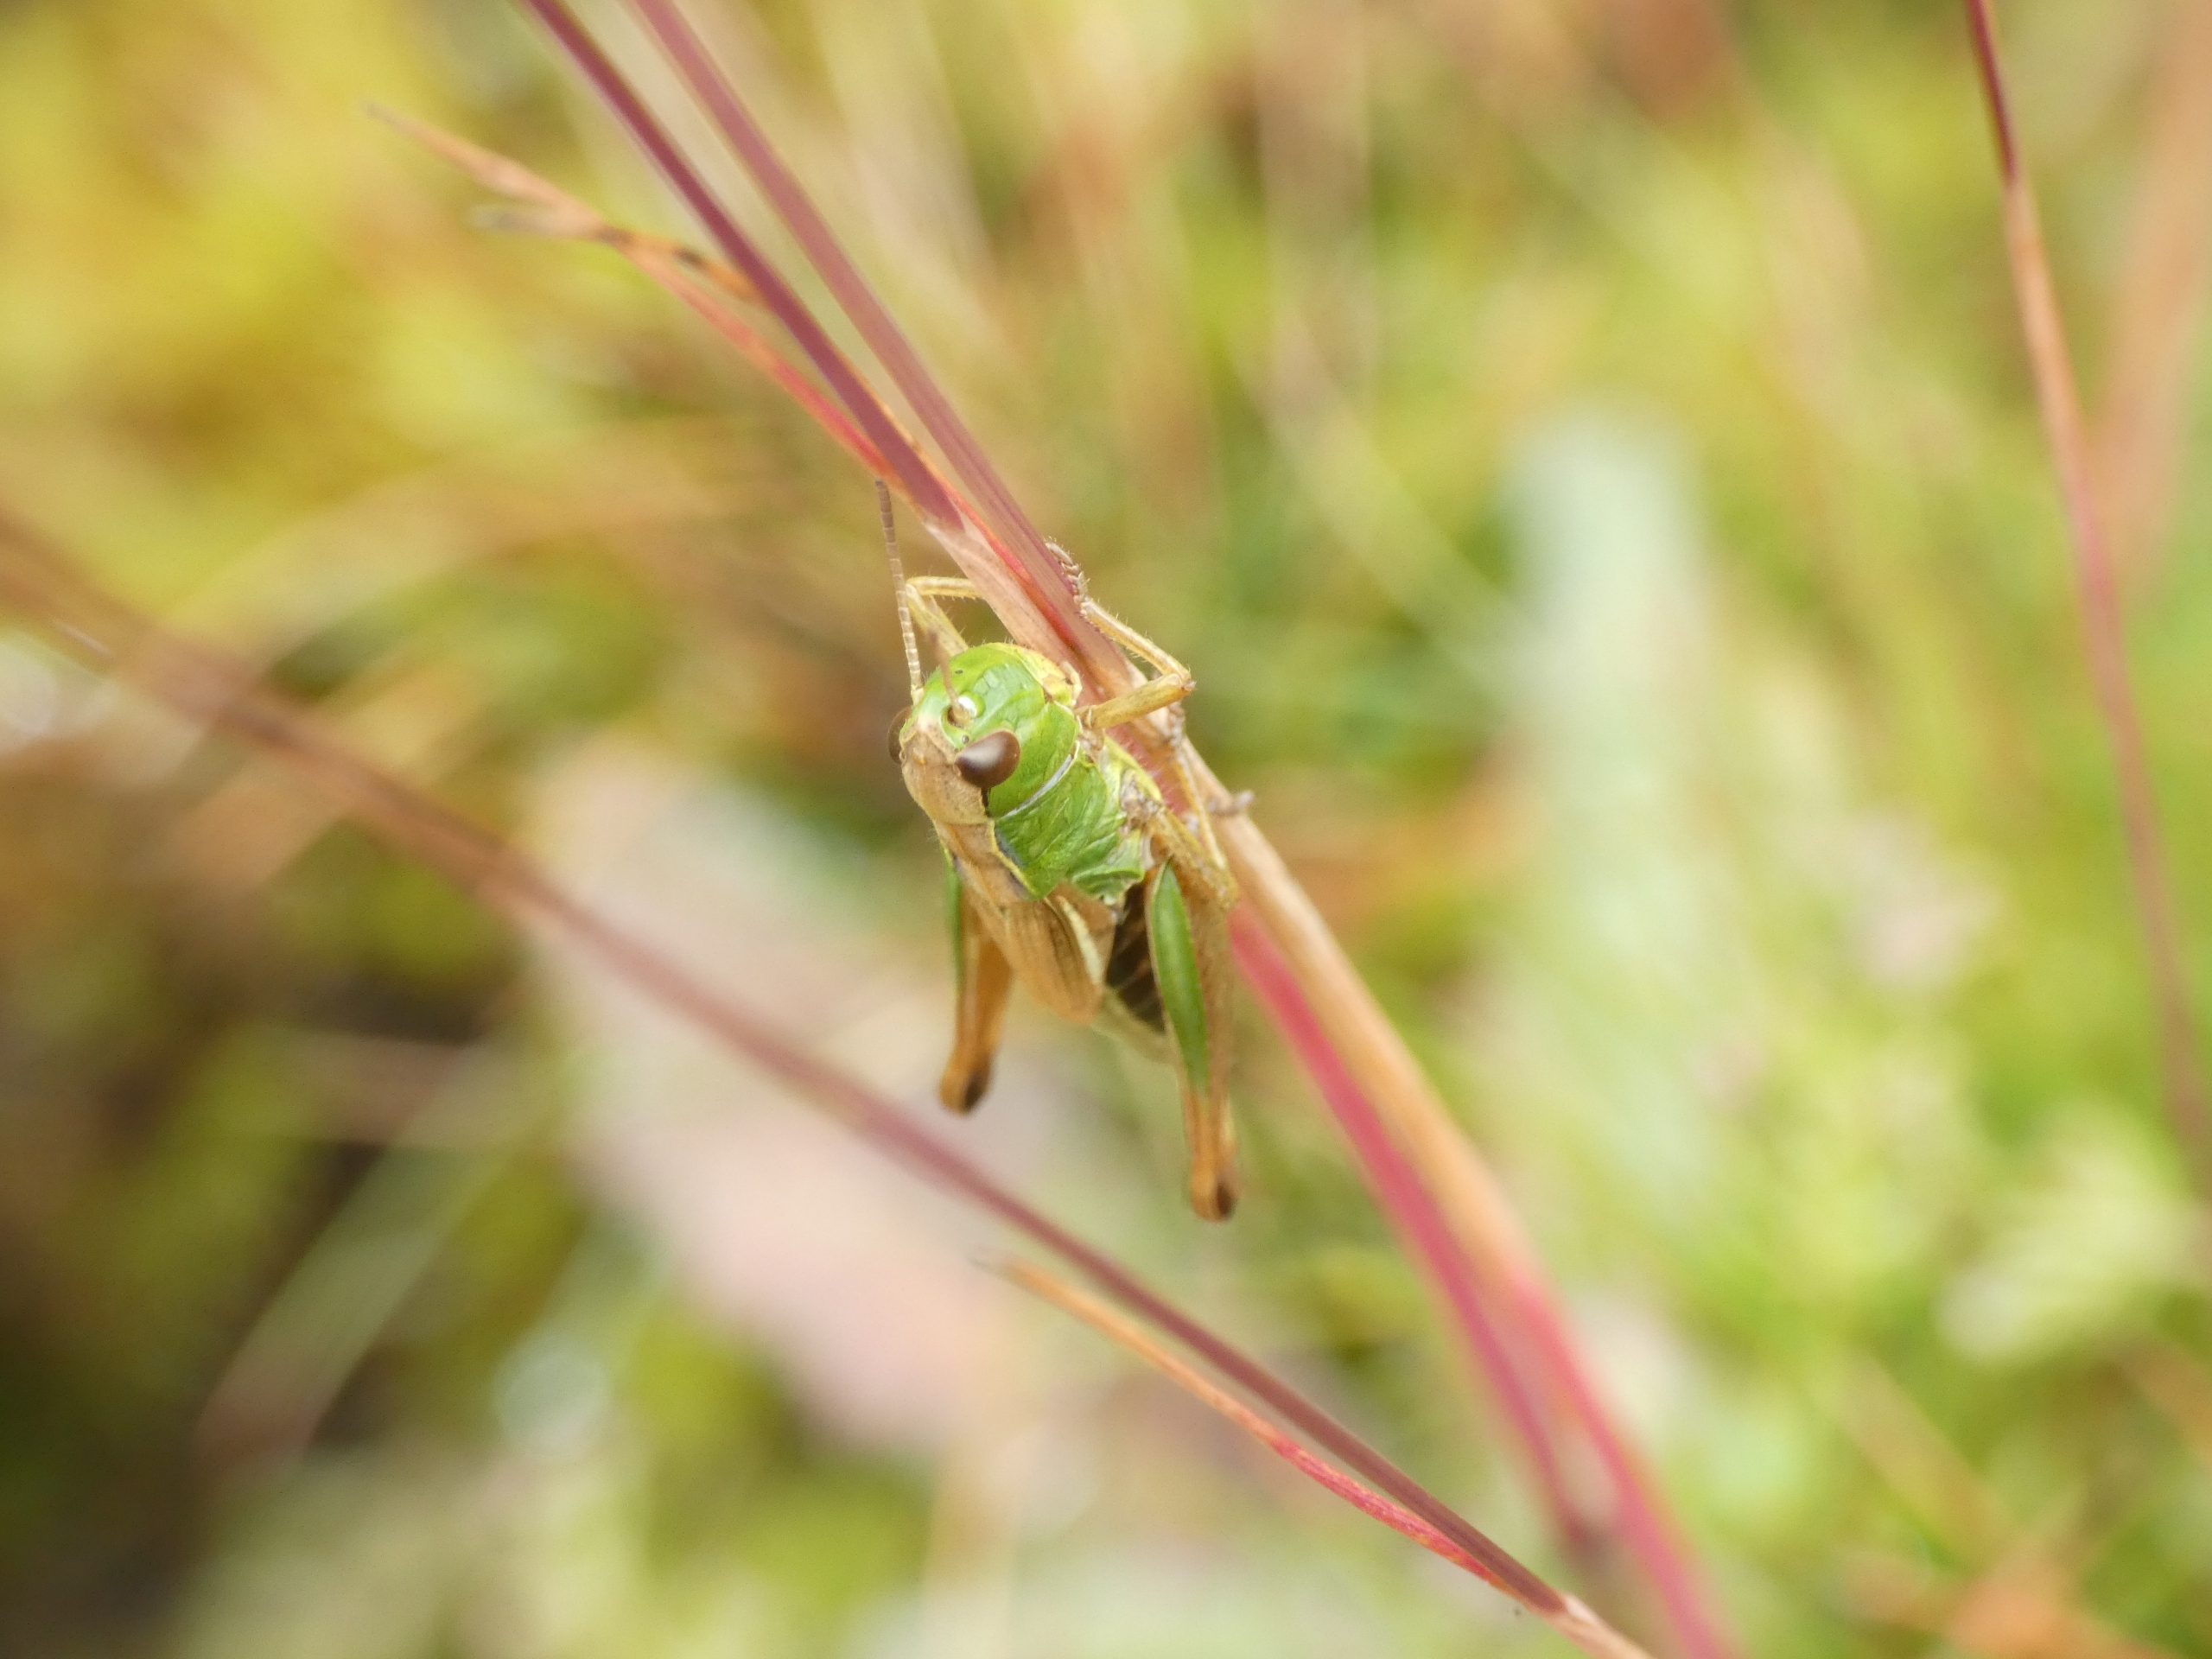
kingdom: Animalia
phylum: Arthropoda
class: Insecta
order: Orthoptera
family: Acrididae
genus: Pseudochorthippus
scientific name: Pseudochorthippus parallelus
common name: Enggræshoppe
